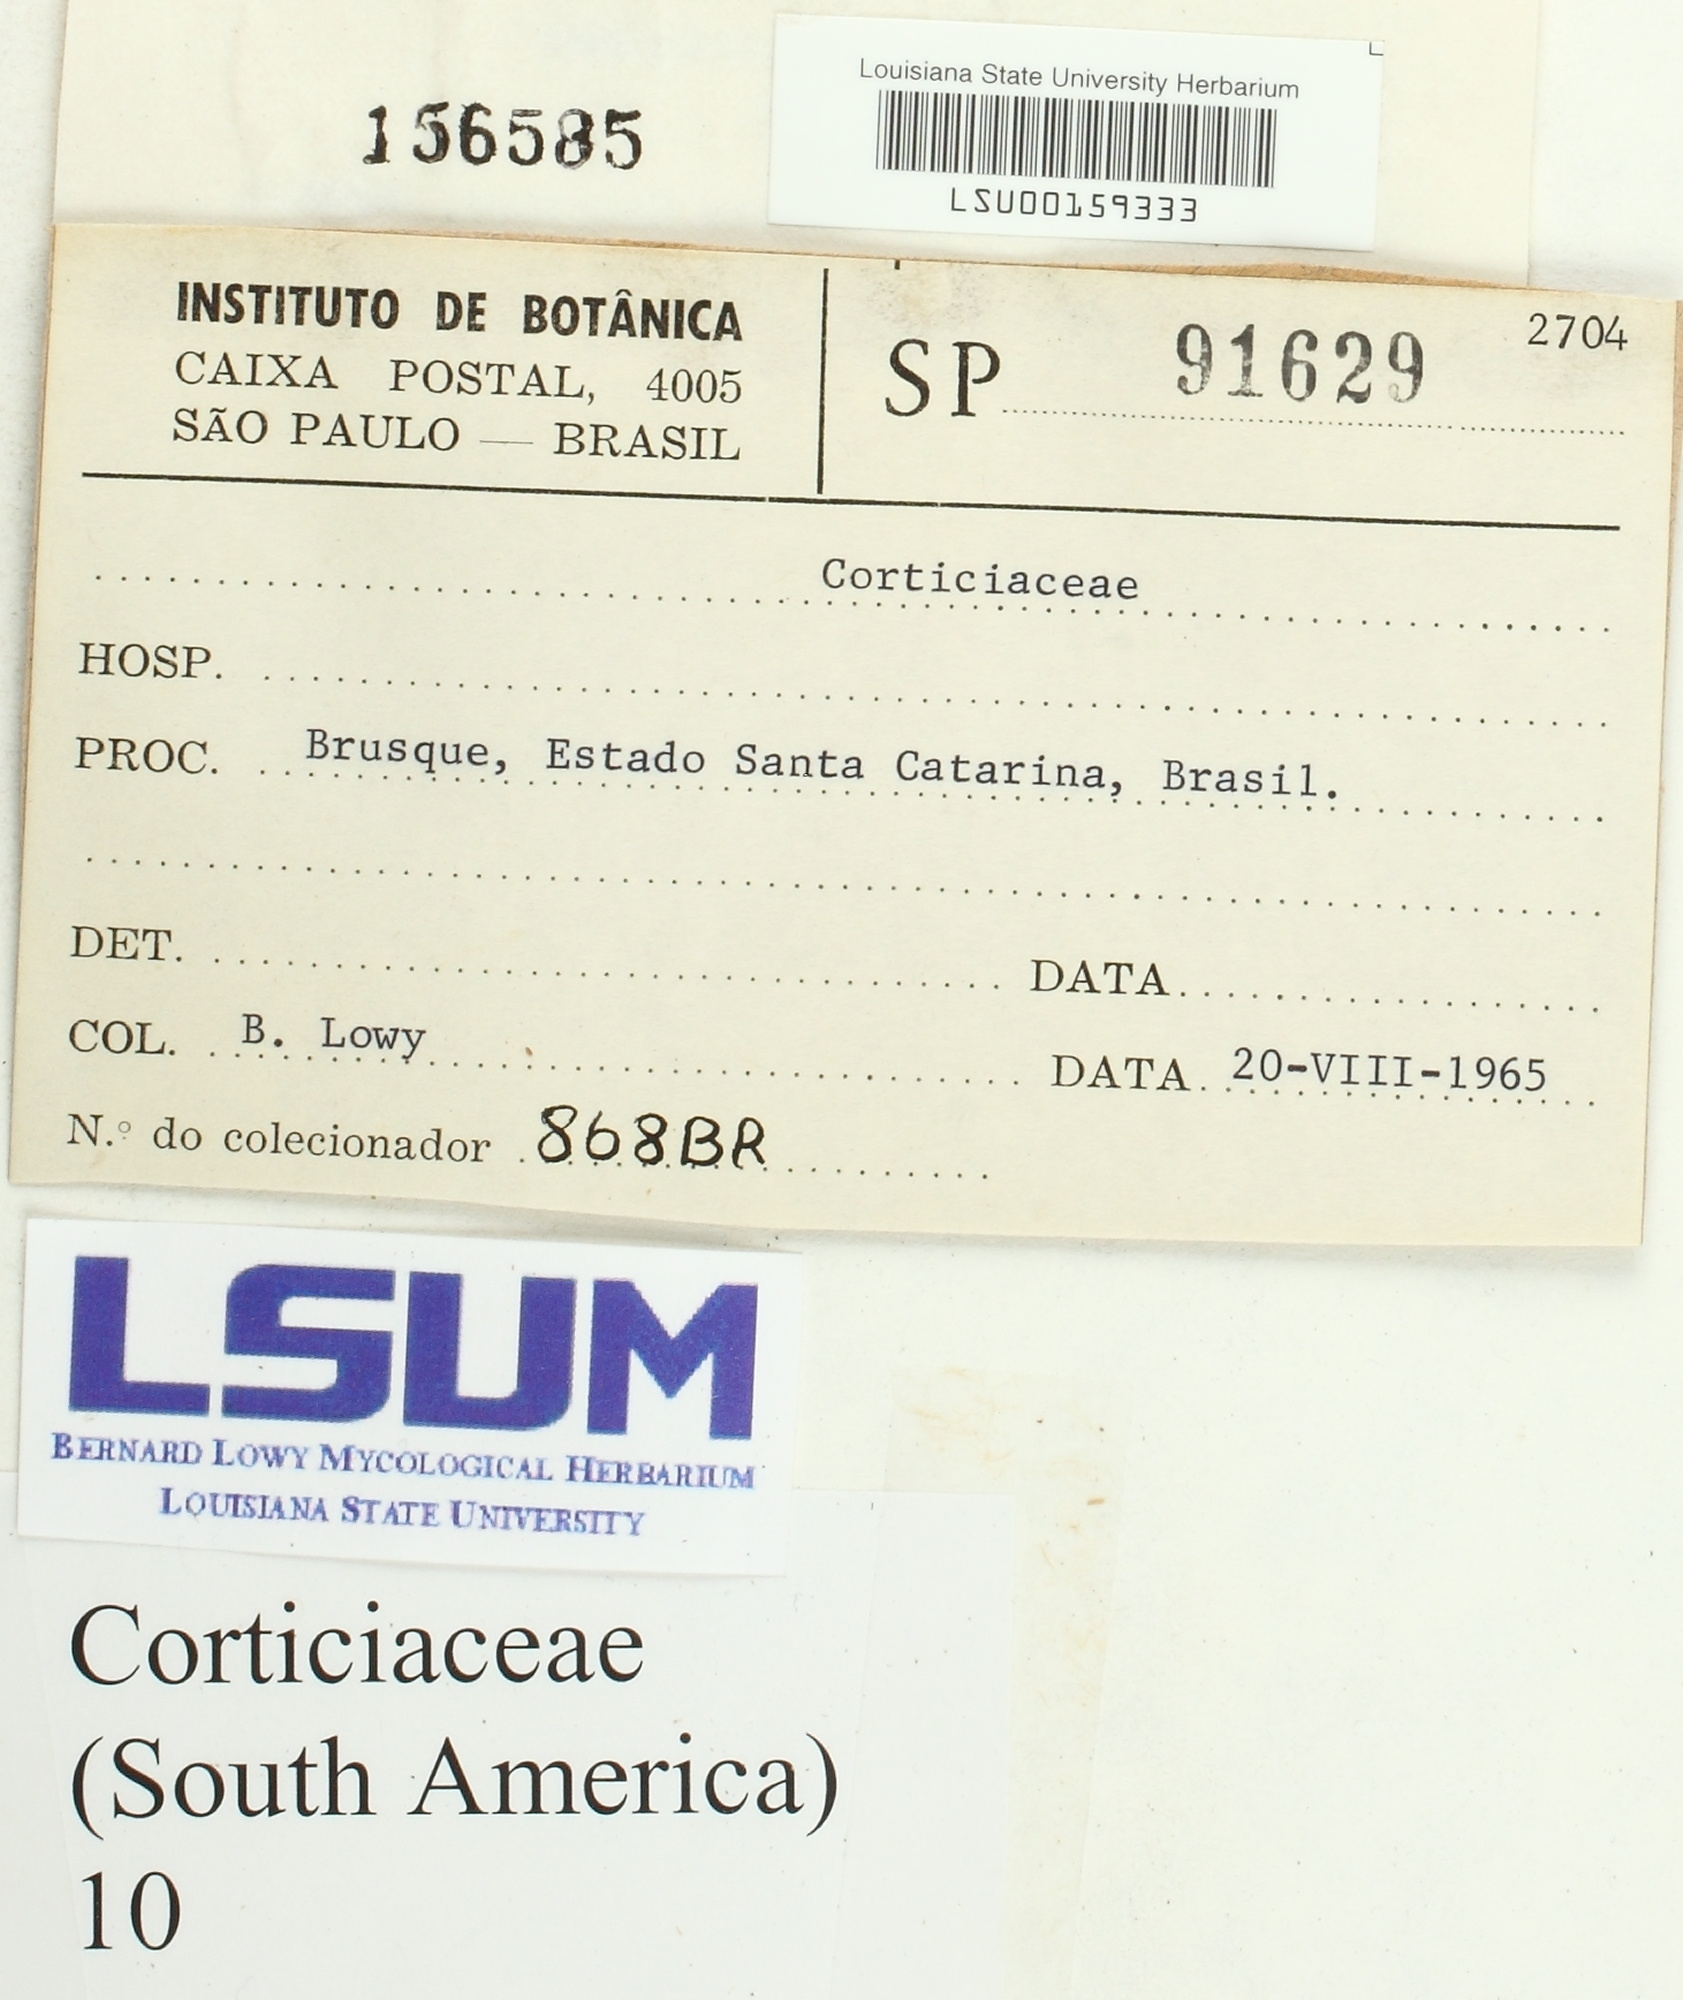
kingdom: Fungi
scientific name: Fungi
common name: Fungi
